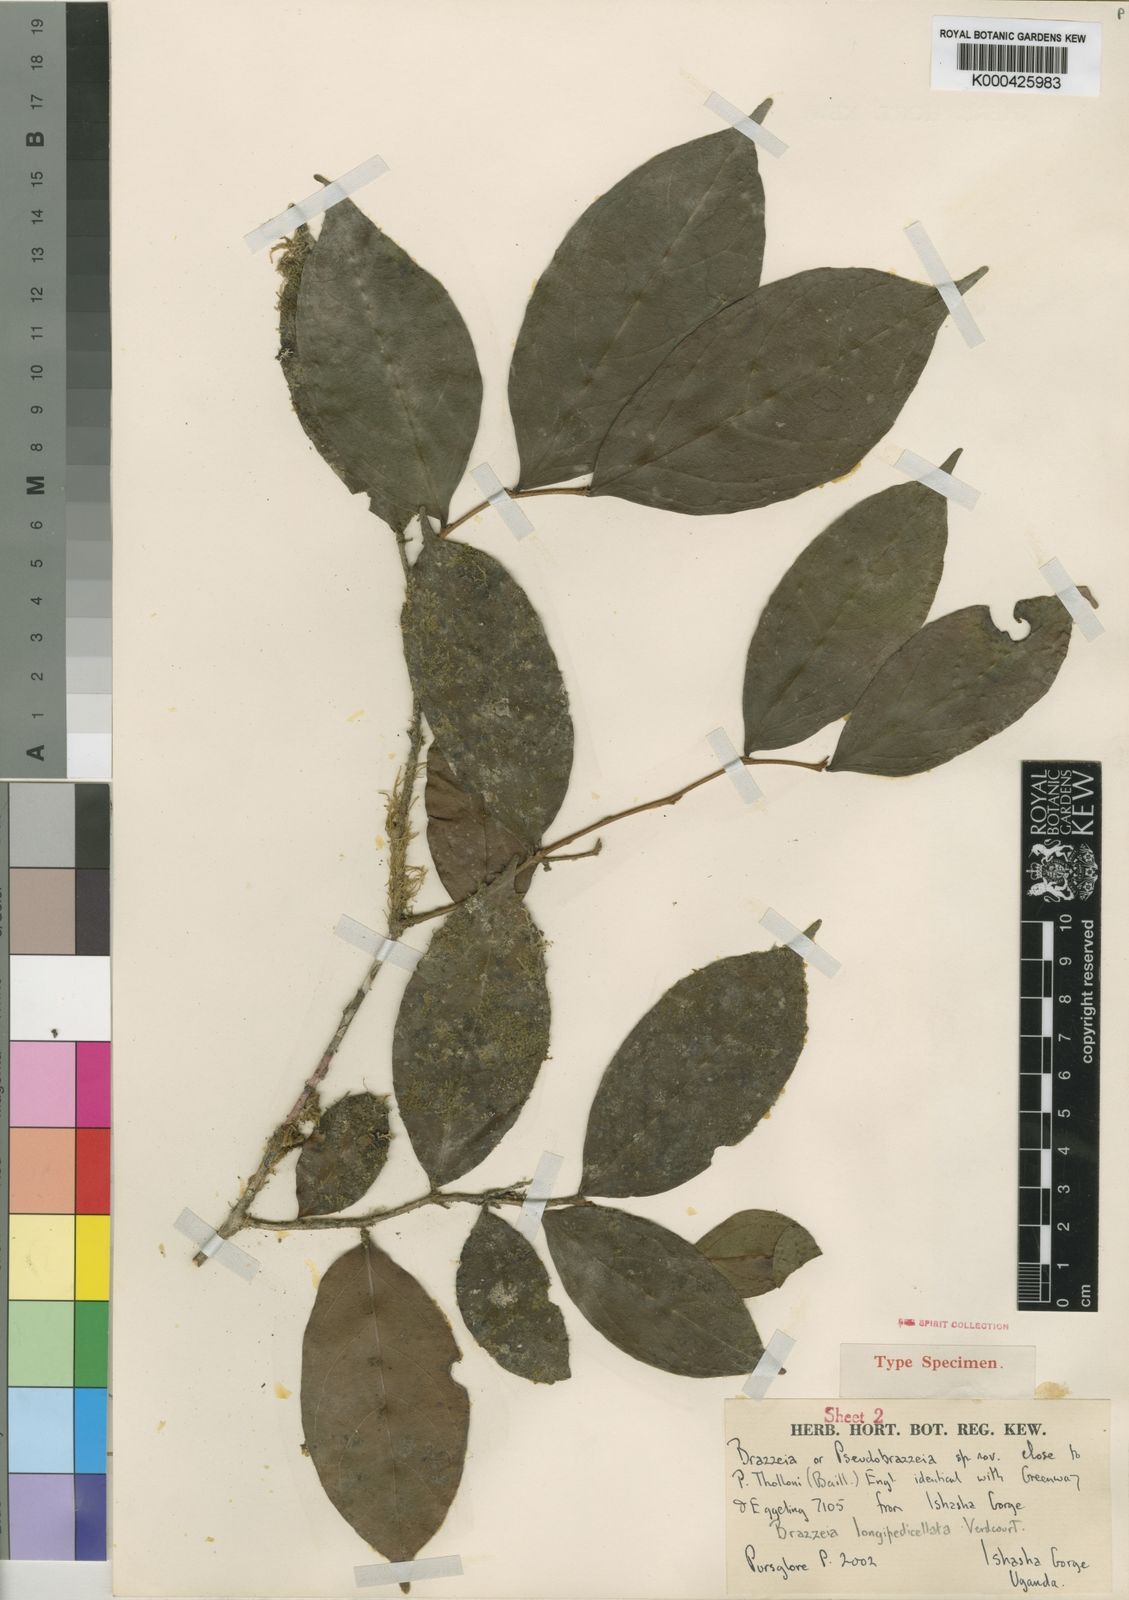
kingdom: Plantae
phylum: Tracheophyta
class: Magnoliopsida
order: Ericales
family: Lecythidaceae
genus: Brazzeia
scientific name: Brazzeia longipedicellata
